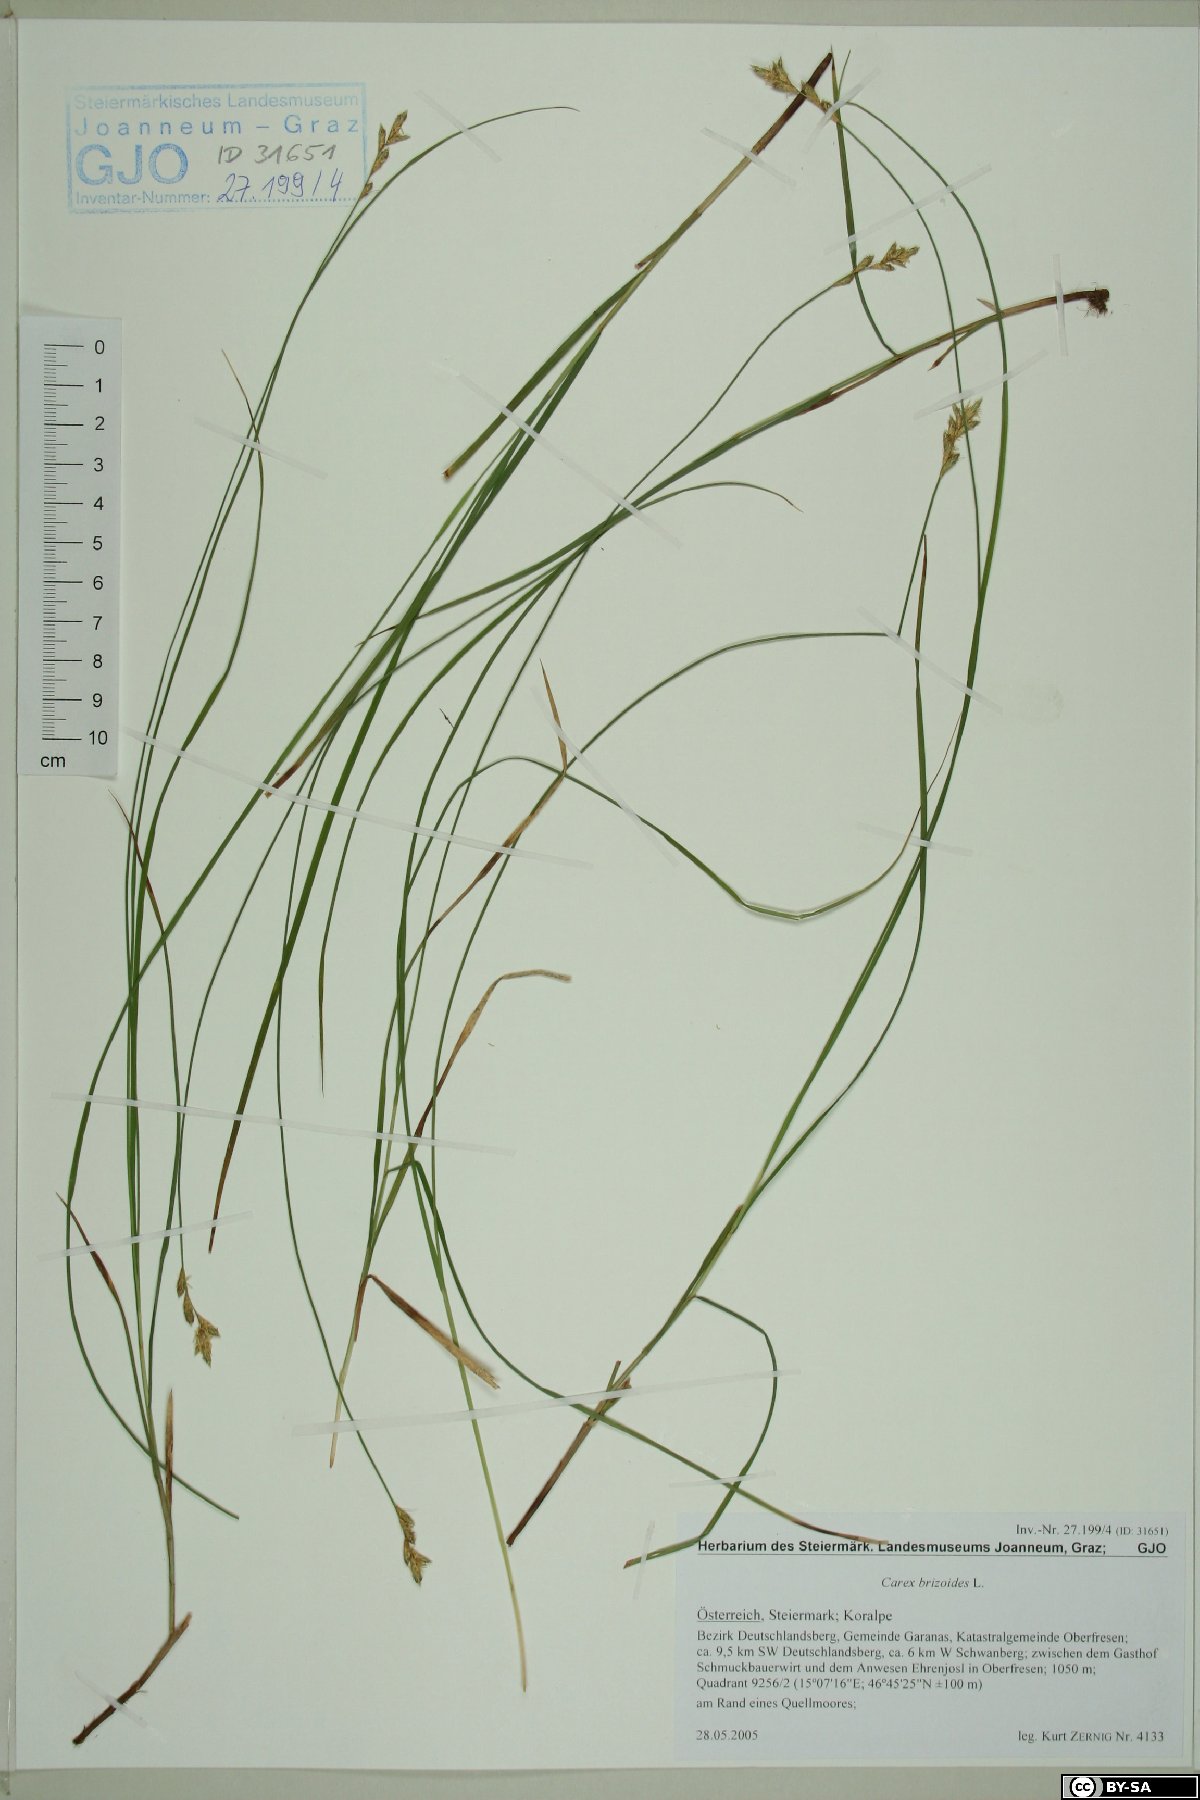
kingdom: Plantae
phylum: Tracheophyta
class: Liliopsida
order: Poales
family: Cyperaceae
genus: Carex
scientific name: Carex brizoides
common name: Quaking-grass sedge
